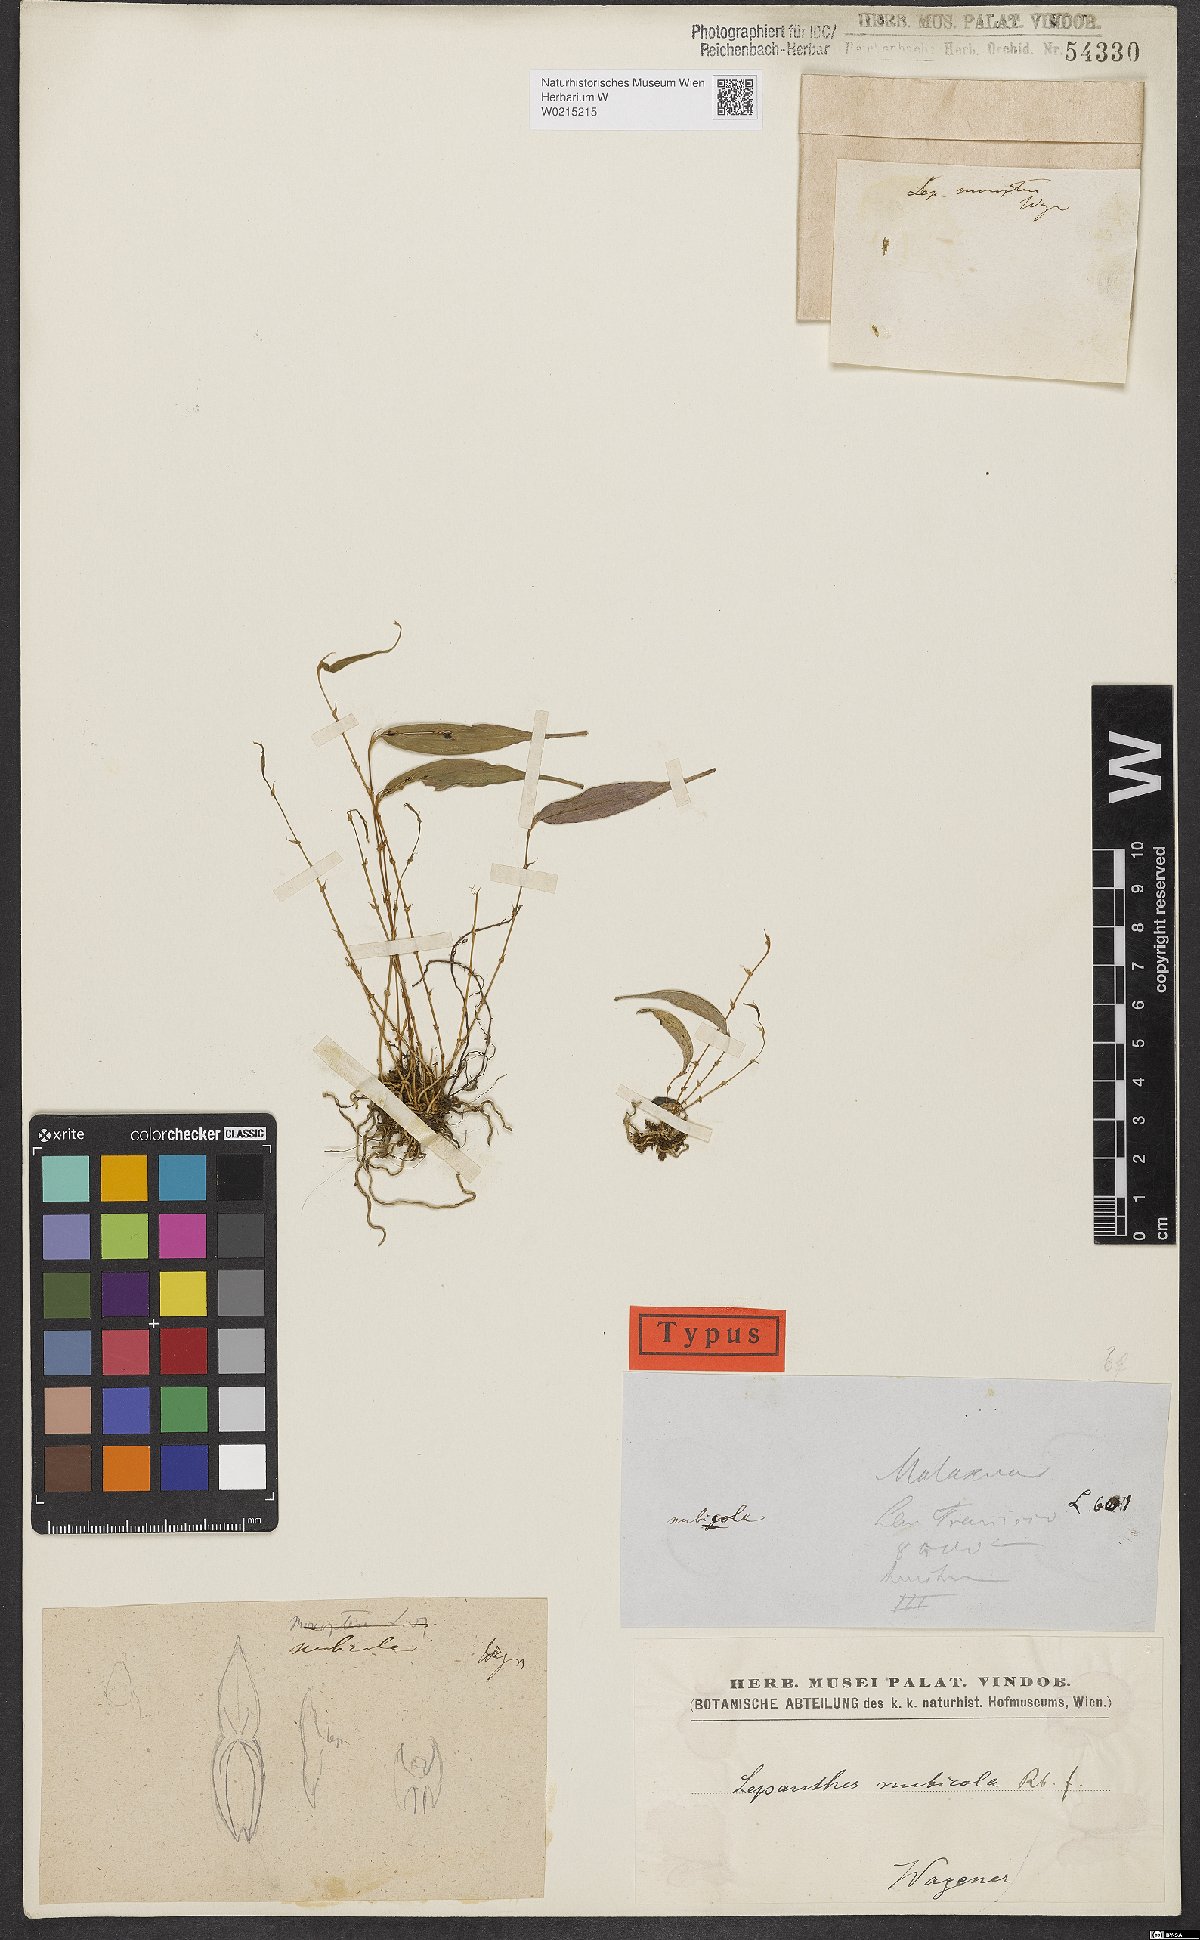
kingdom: Plantae
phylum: Tracheophyta
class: Liliopsida
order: Asparagales
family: Orchidaceae
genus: Lepanthes
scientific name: Lepanthes
